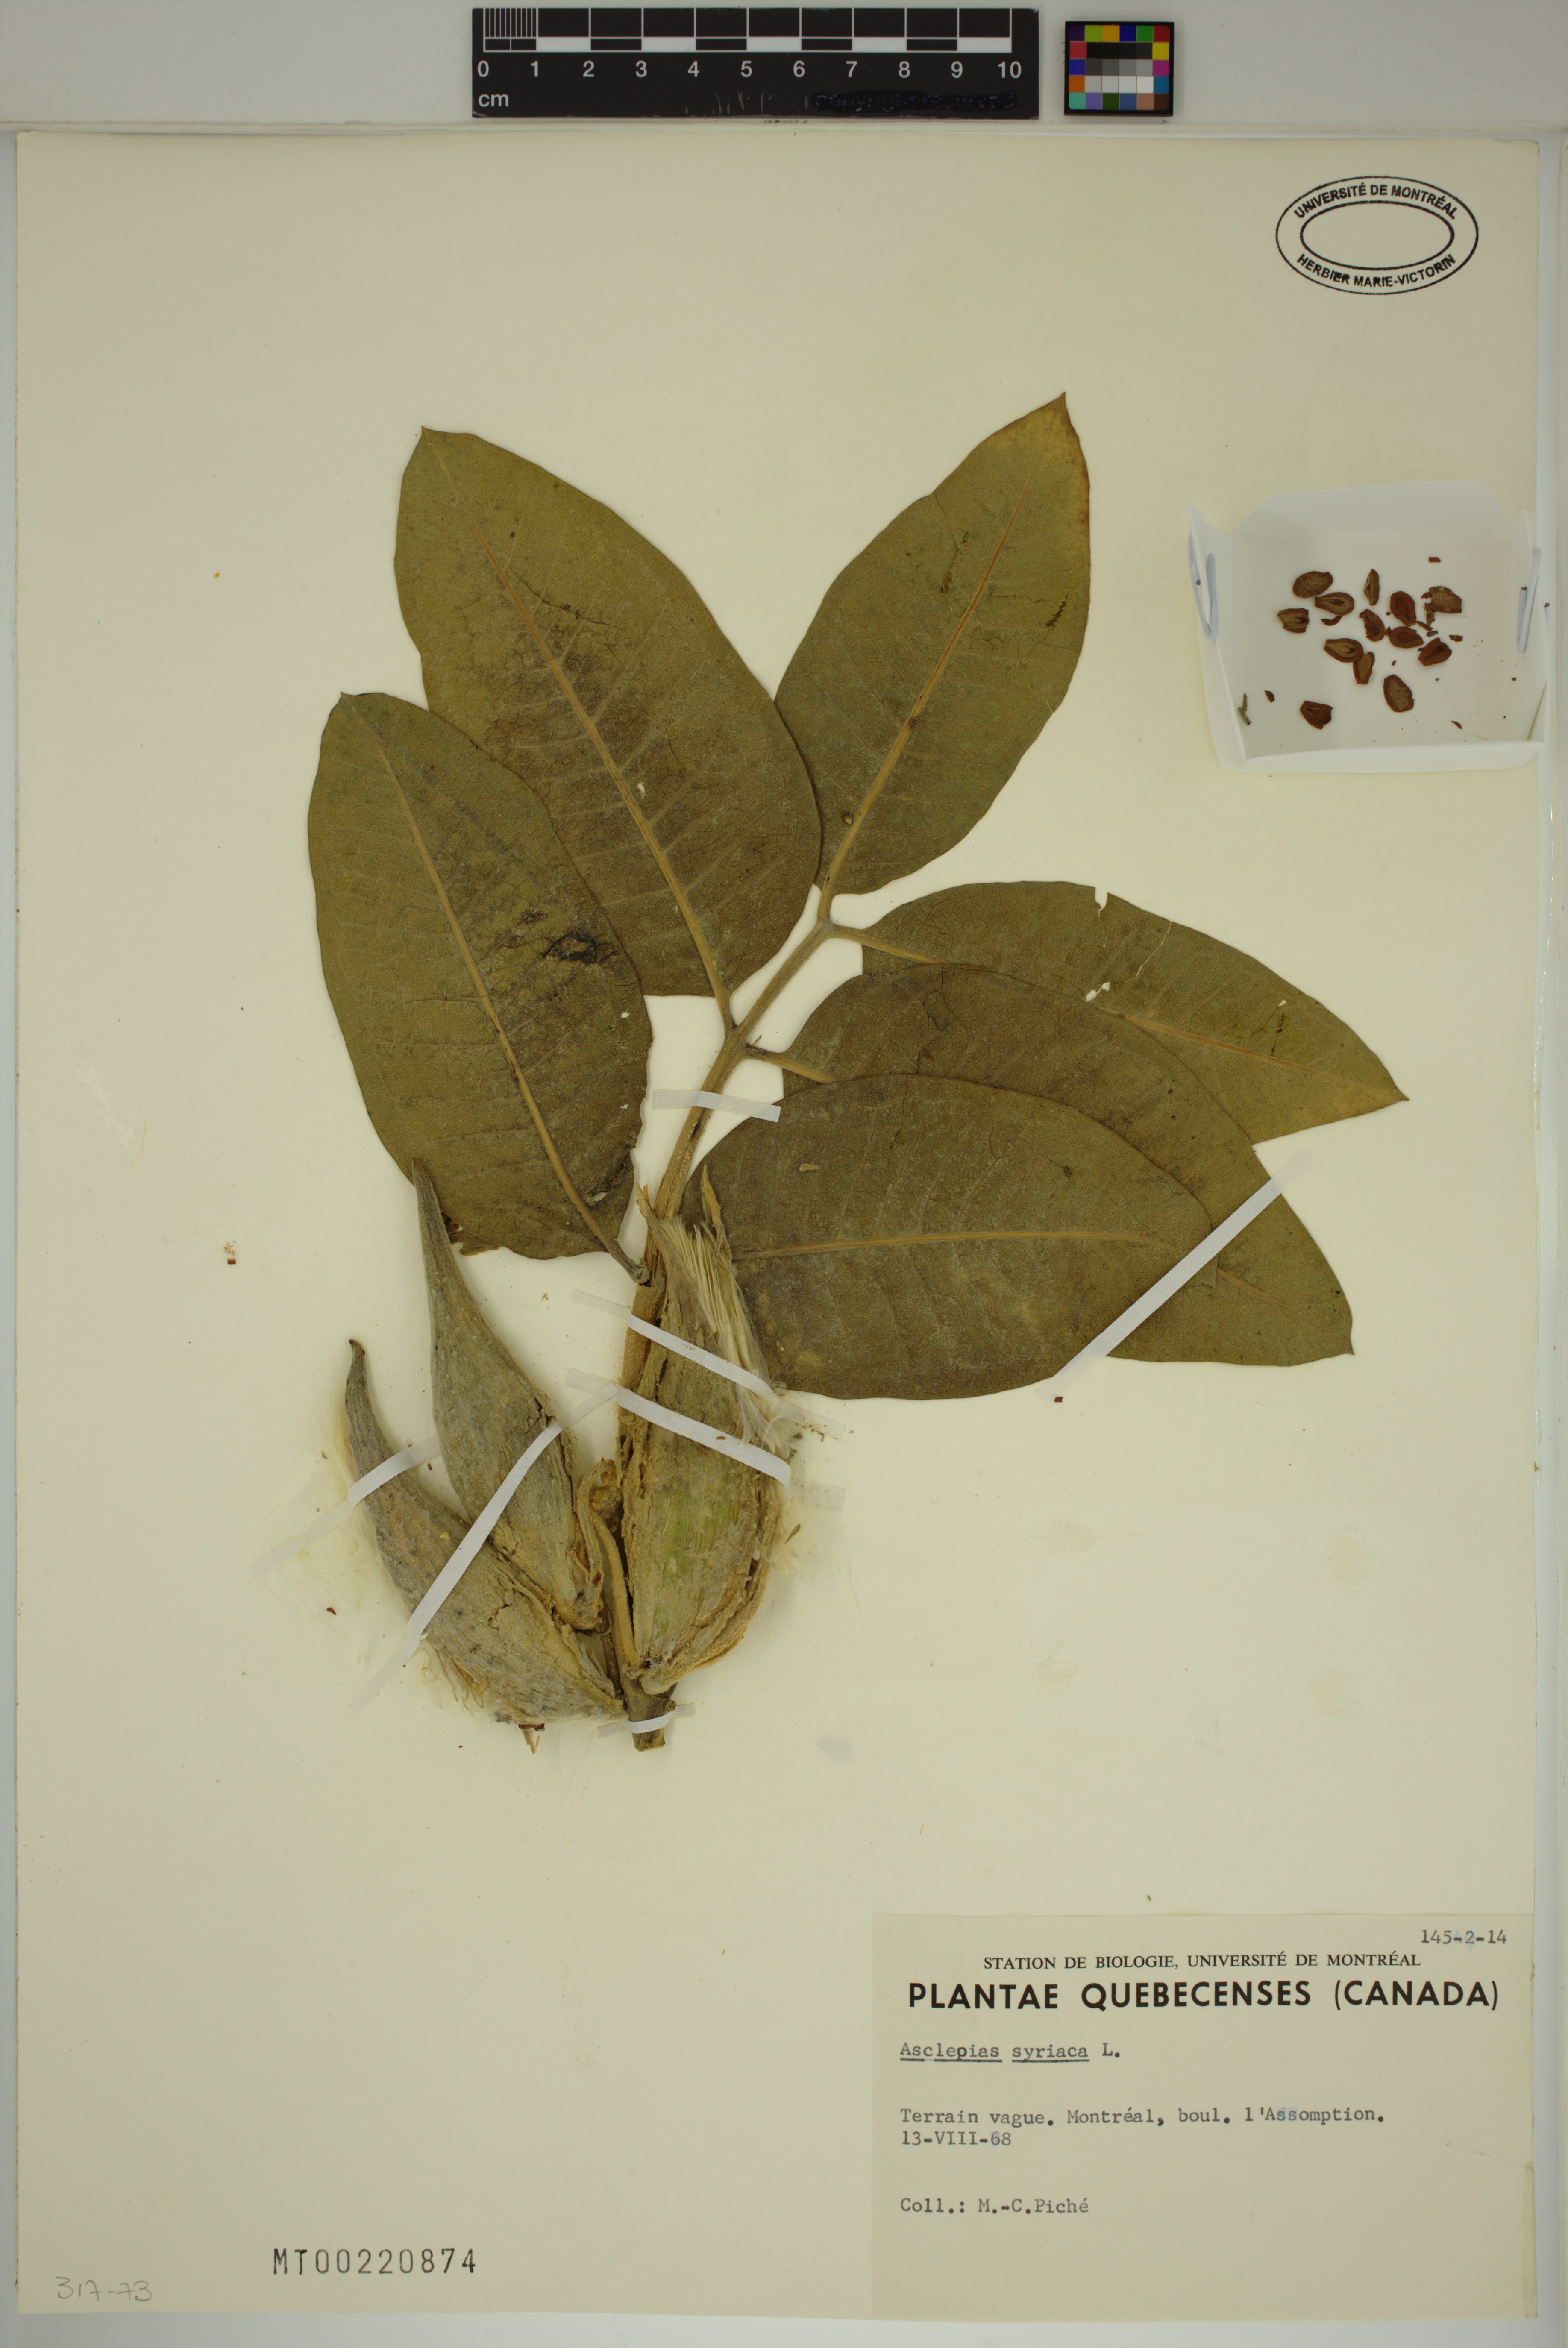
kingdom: Plantae
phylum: Tracheophyta
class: Magnoliopsida
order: Gentianales
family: Apocynaceae
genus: Asclepias
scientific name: Asclepias syriaca
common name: Common milkweed
